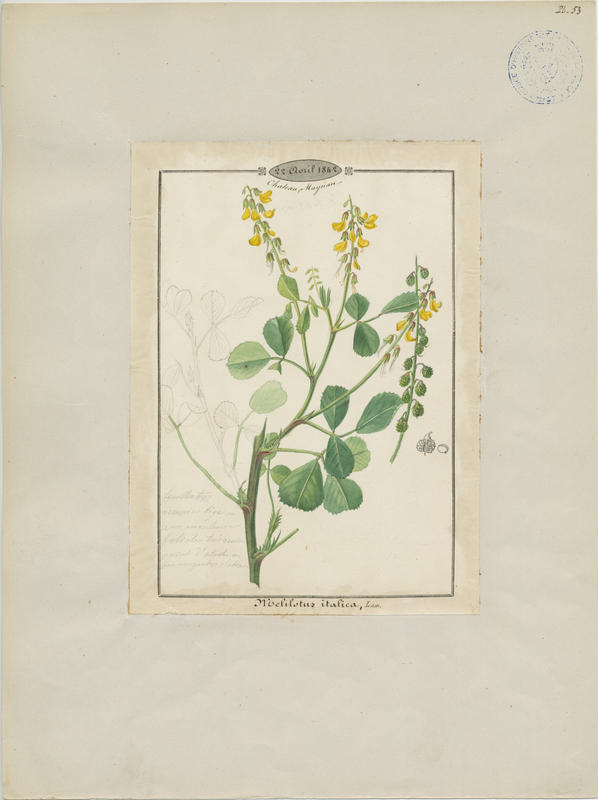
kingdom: Plantae
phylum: Tracheophyta
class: Magnoliopsida
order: Fabales
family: Fabaceae
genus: Melilotus
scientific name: Melilotus italicus
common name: Italian melilot
